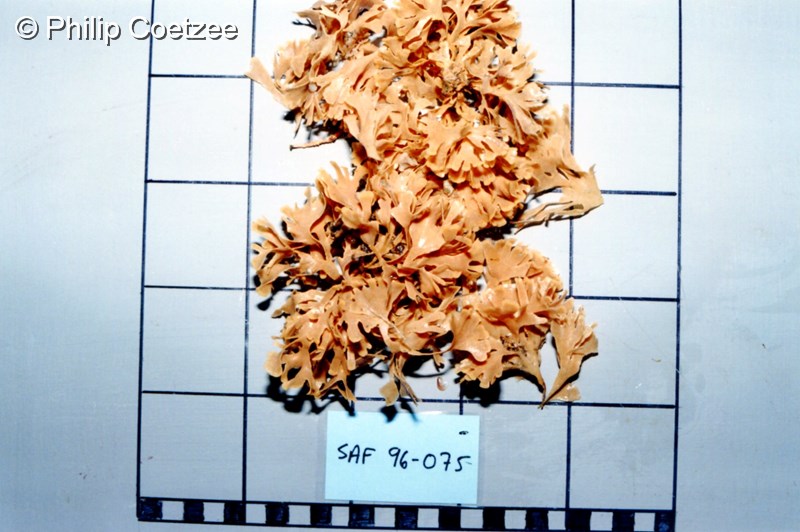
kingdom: Animalia
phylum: Bryozoa
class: Gymnolaemata
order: Cheilostomatida
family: Flustridae
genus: Gregarinidra
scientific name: Gregarinidra spinuligera
